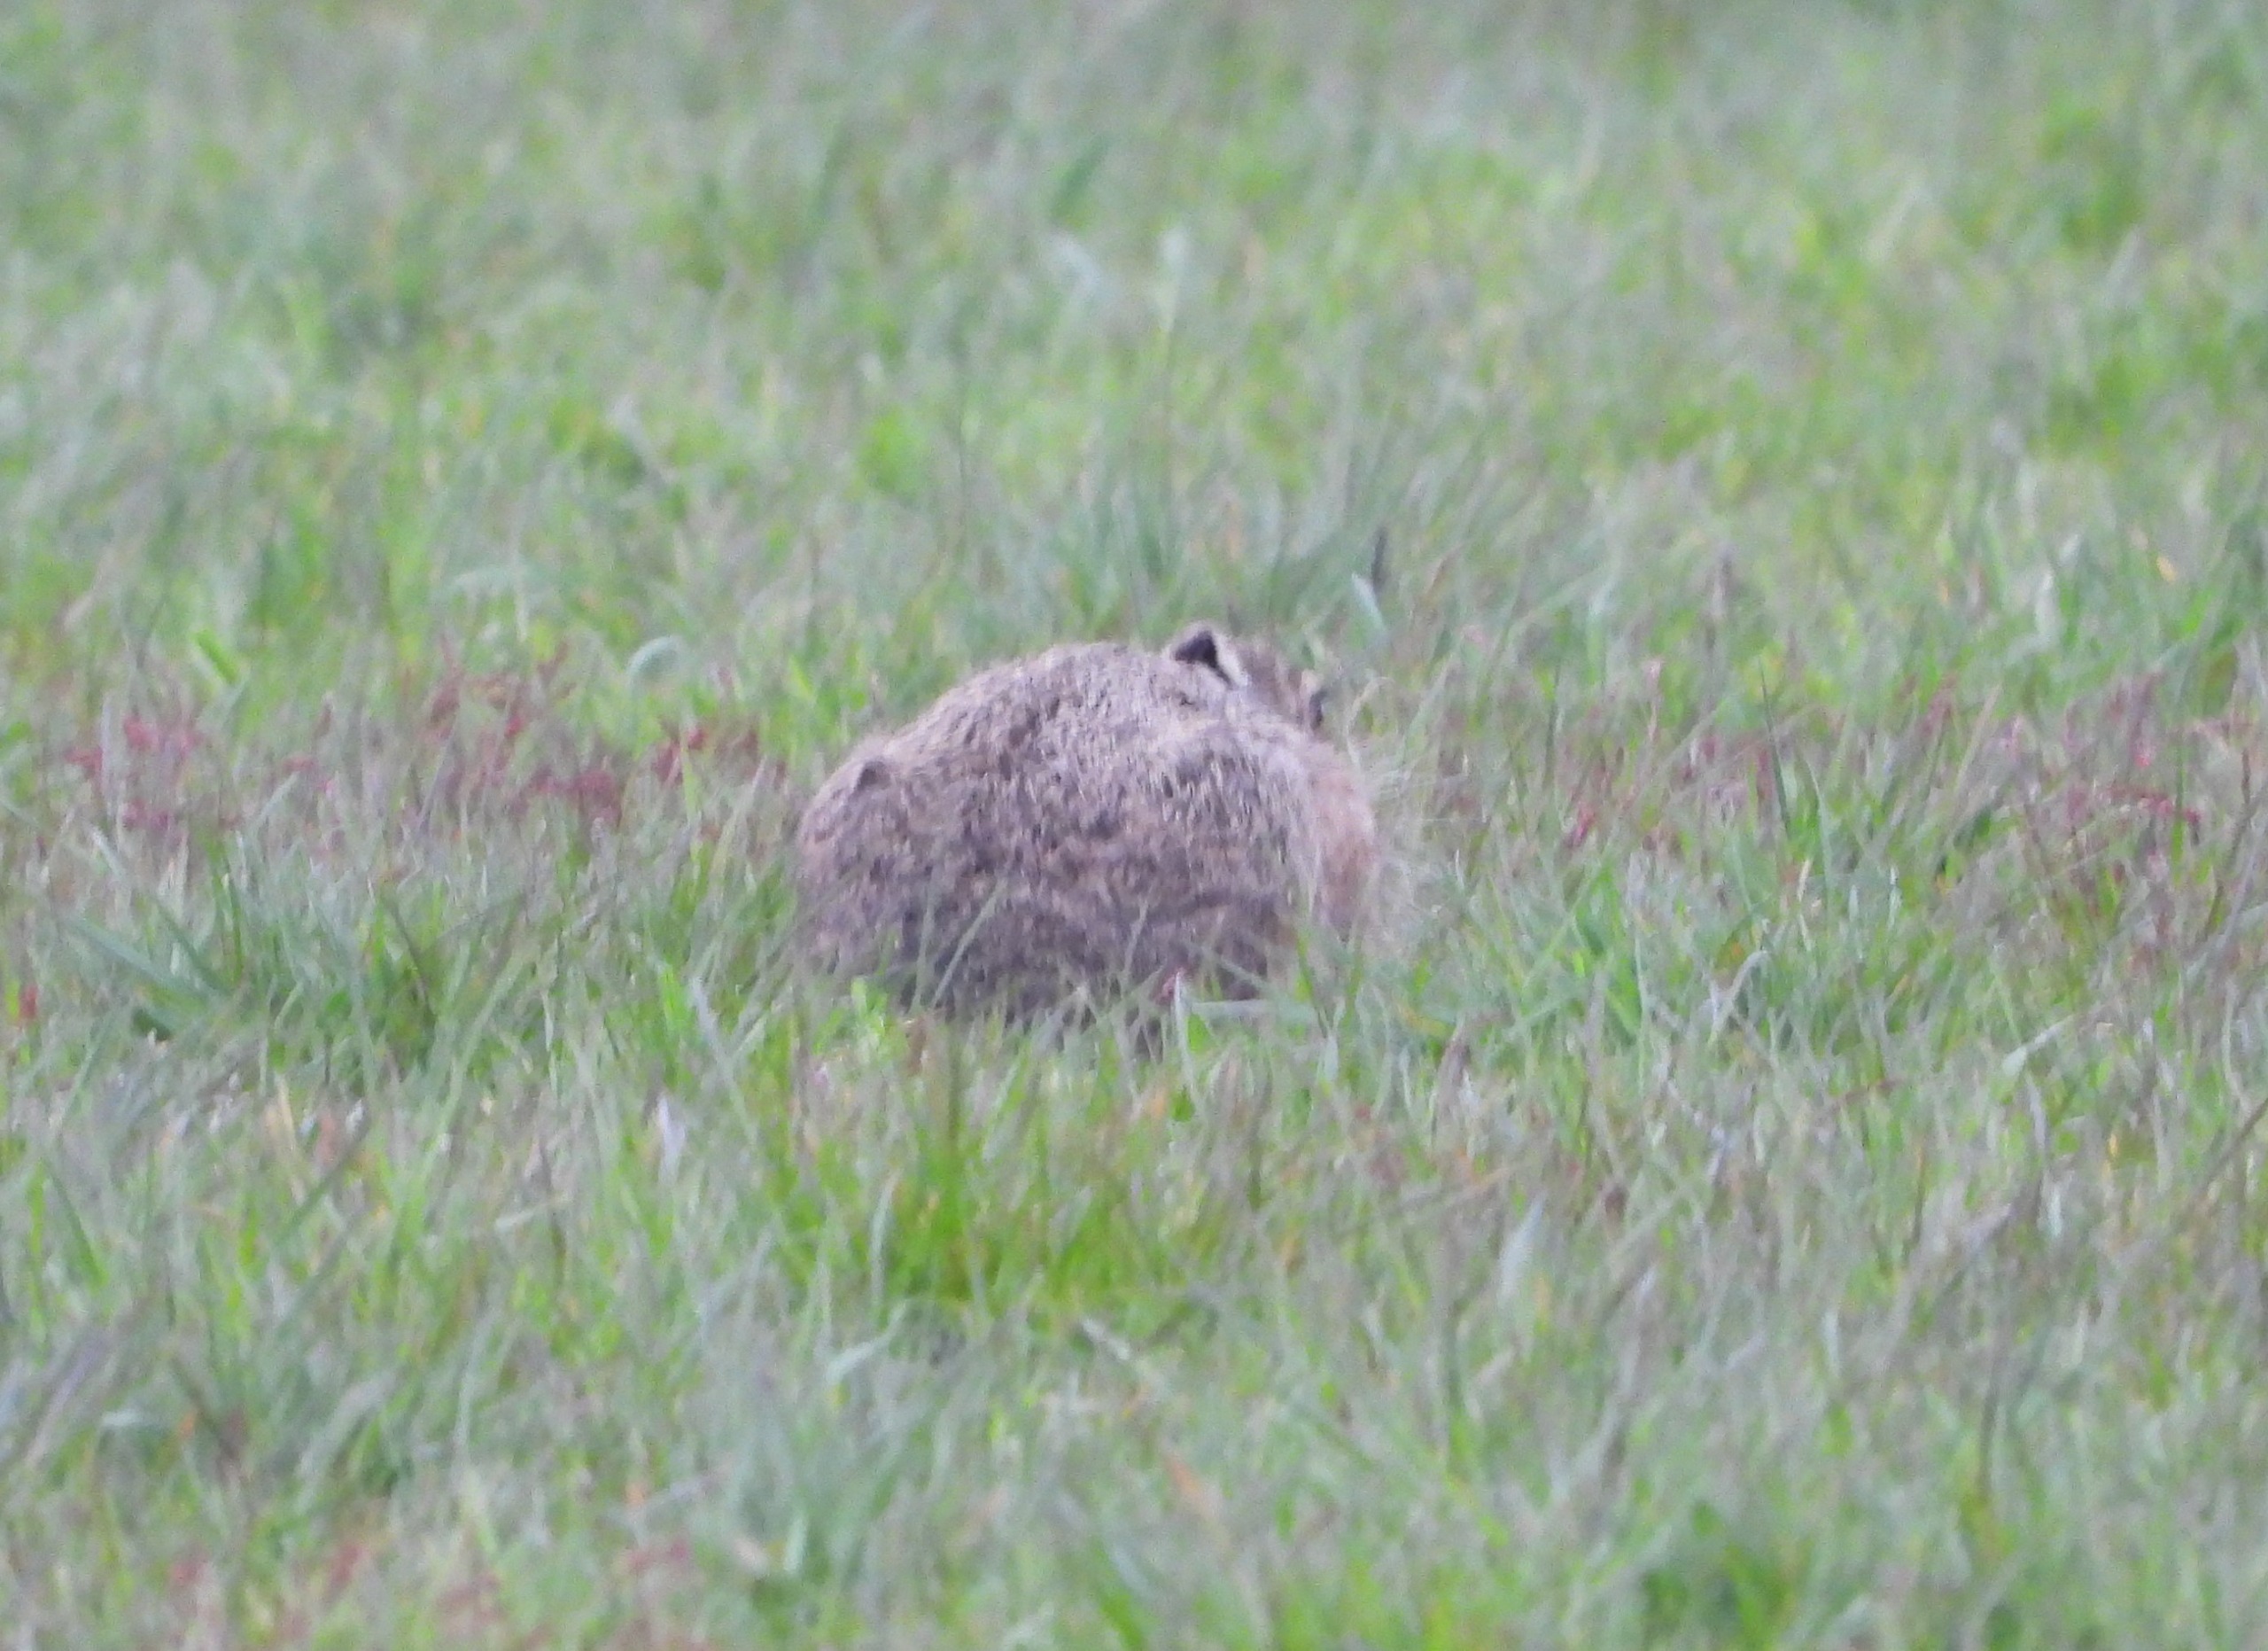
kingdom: Animalia
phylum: Chordata
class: Mammalia
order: Lagomorpha
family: Leporidae
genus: Lepus
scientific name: Lepus europaeus
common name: Hare
